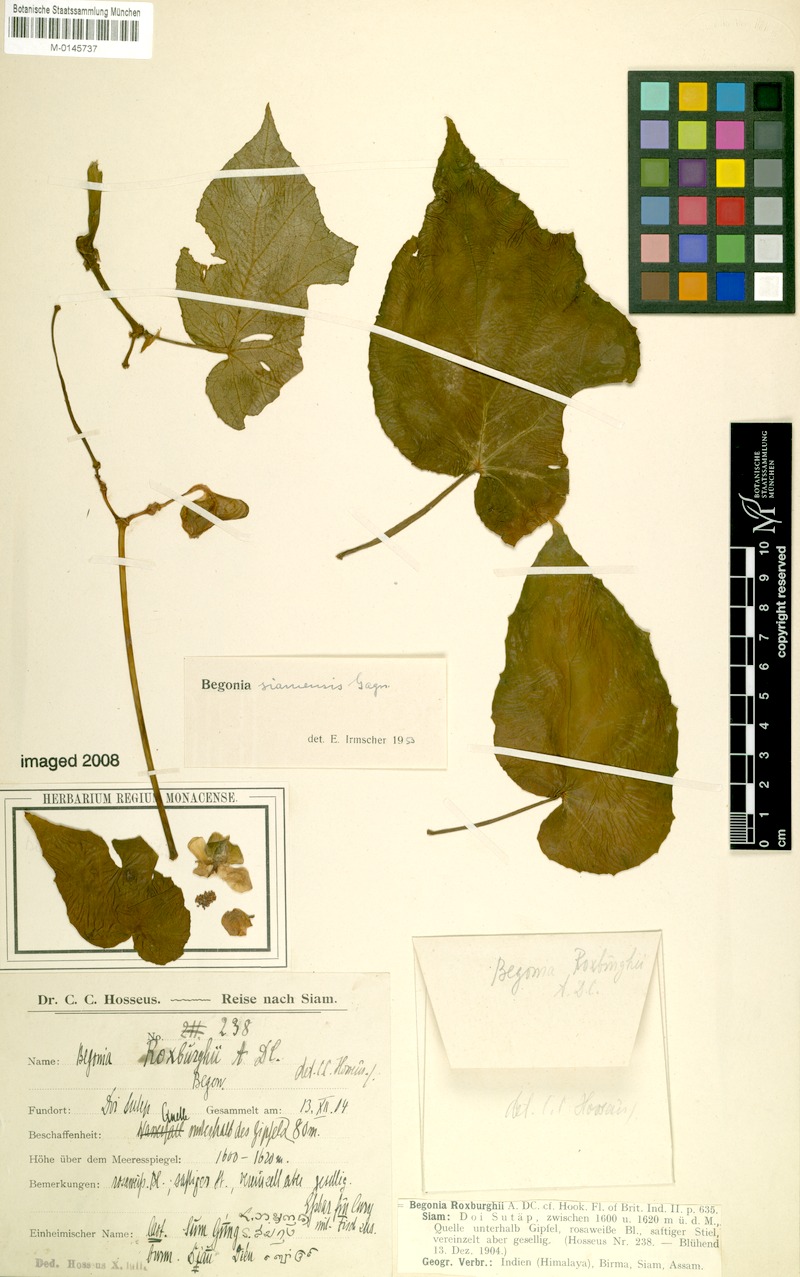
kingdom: Plantae
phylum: Tracheophyta
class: Magnoliopsida
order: Cucurbitales
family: Begoniaceae
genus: Begonia
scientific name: Begonia siamensis
